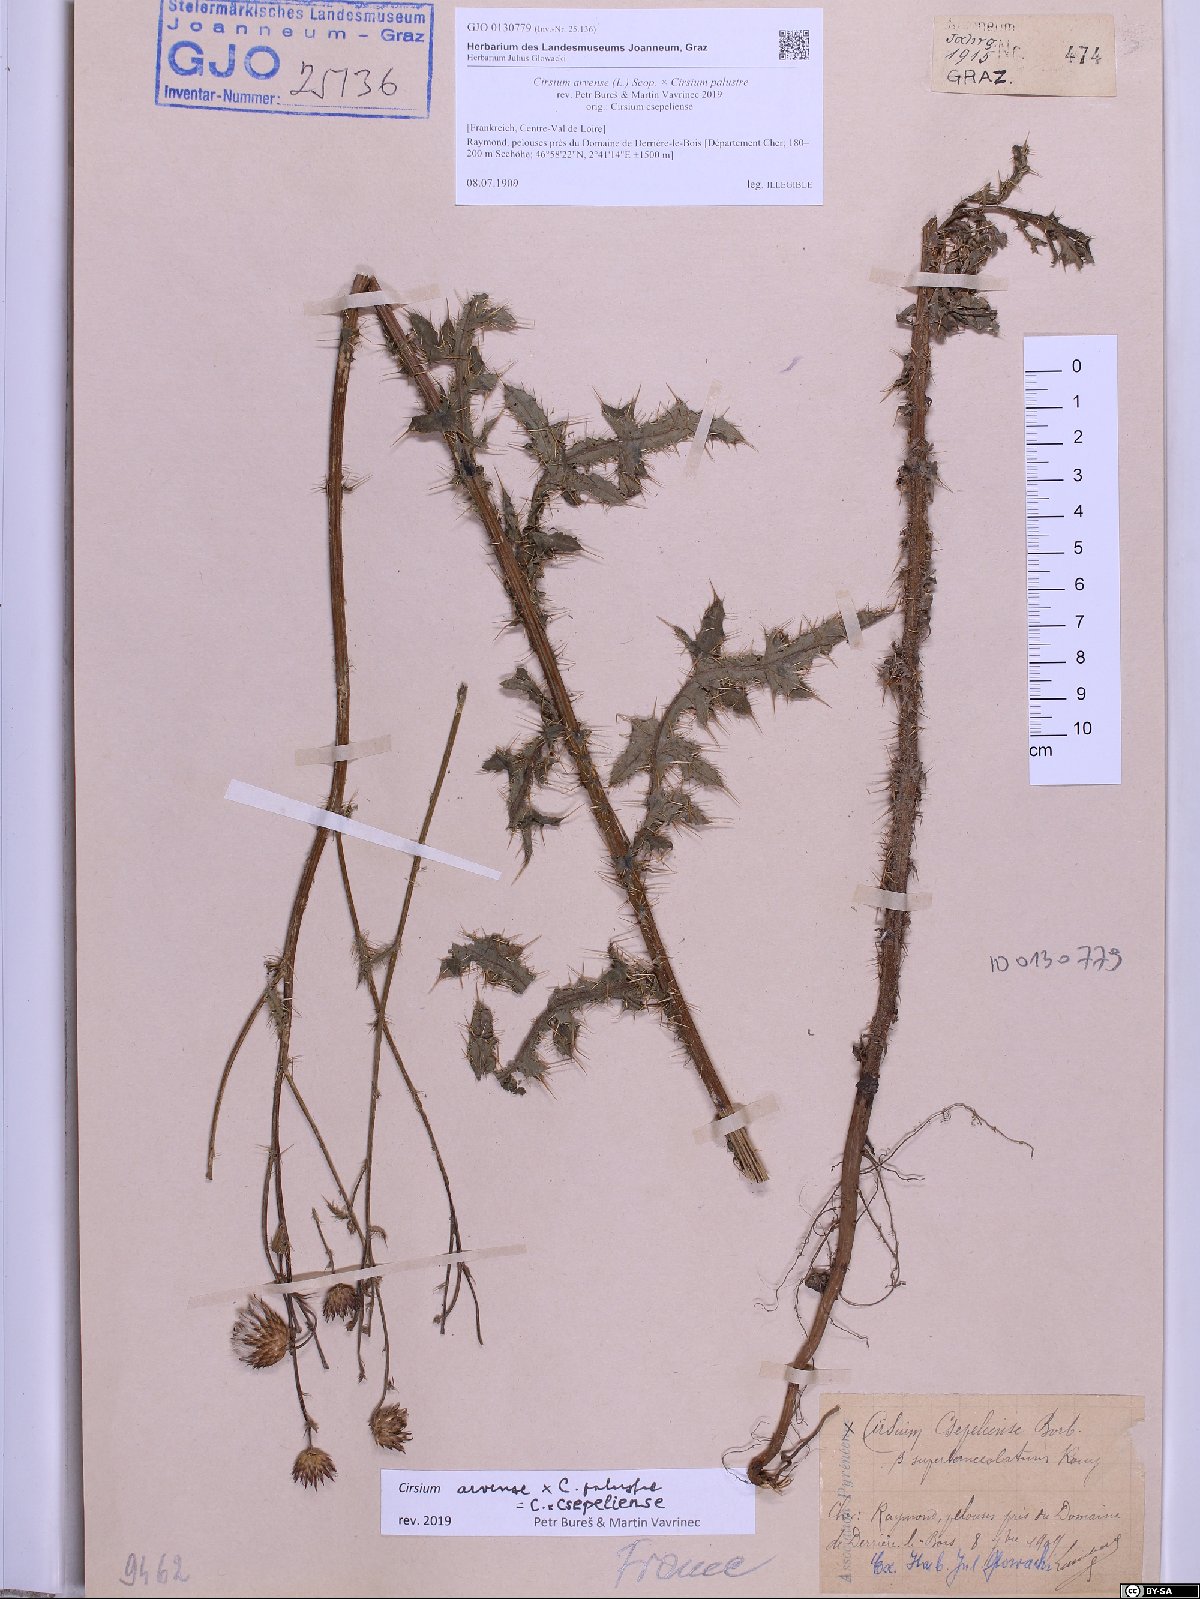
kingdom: Plantae
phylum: Tracheophyta
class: Magnoliopsida
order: Asterales
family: Asteraceae
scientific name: Asteraceae
